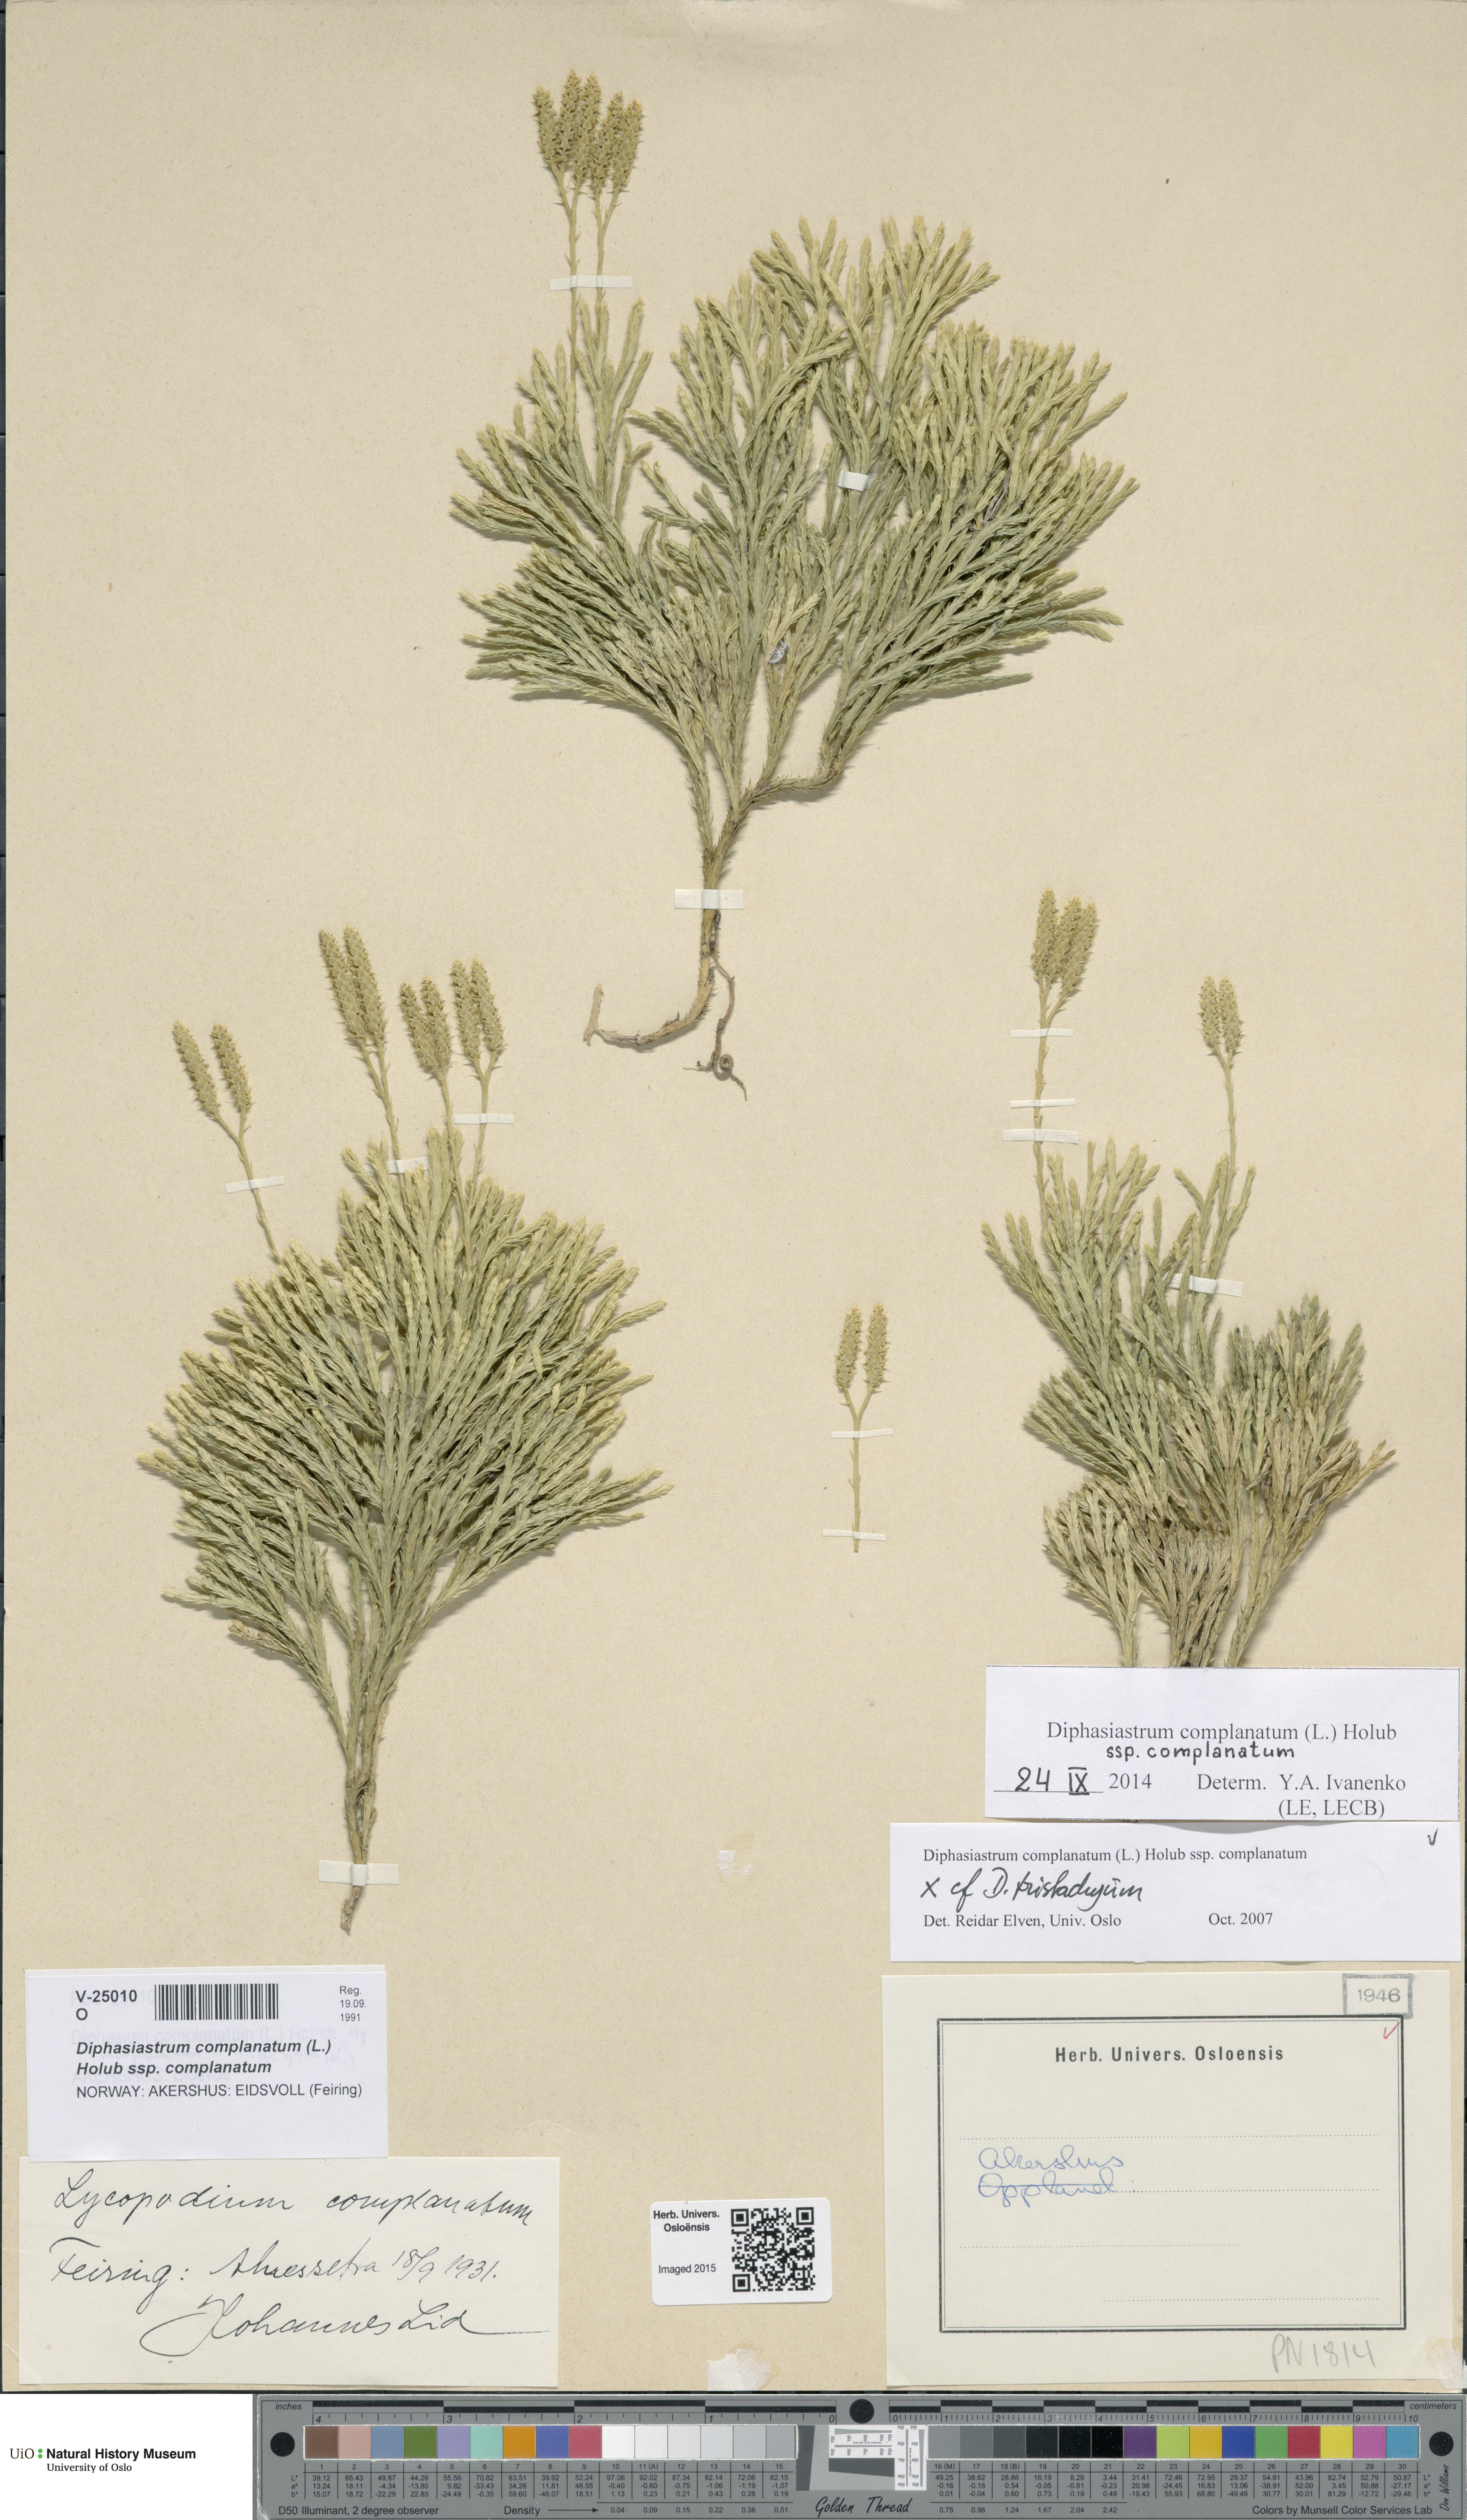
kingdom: Plantae
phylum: Tracheophyta
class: Lycopodiopsida
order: Lycopodiales
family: Lycopodiaceae
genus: Diphasiastrum
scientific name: Diphasiastrum complanatum
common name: Northern running-pine
